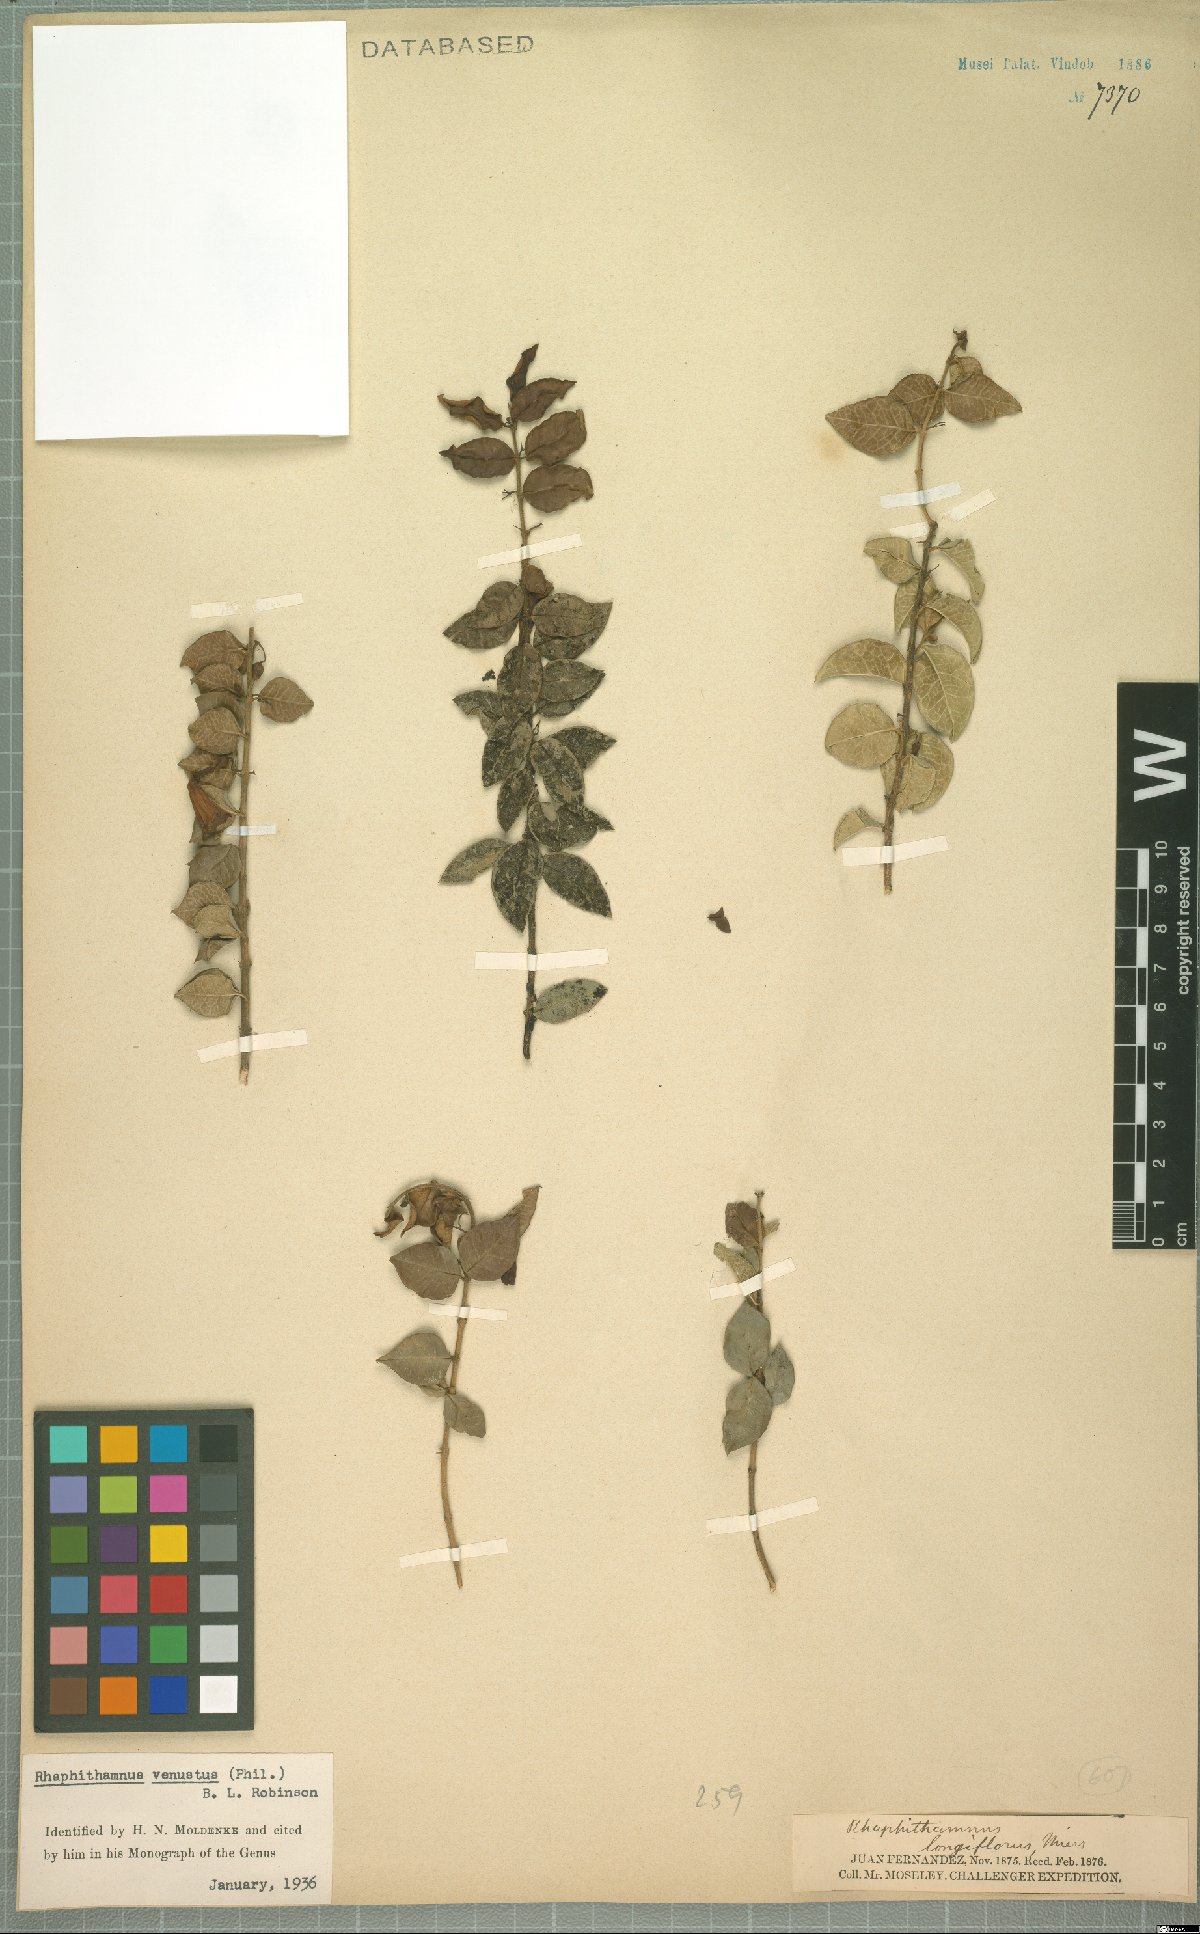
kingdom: Plantae
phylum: Tracheophyta
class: Magnoliopsida
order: Lamiales
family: Verbenaceae
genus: Rhaphithamnus
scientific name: Rhaphithamnus venustus
